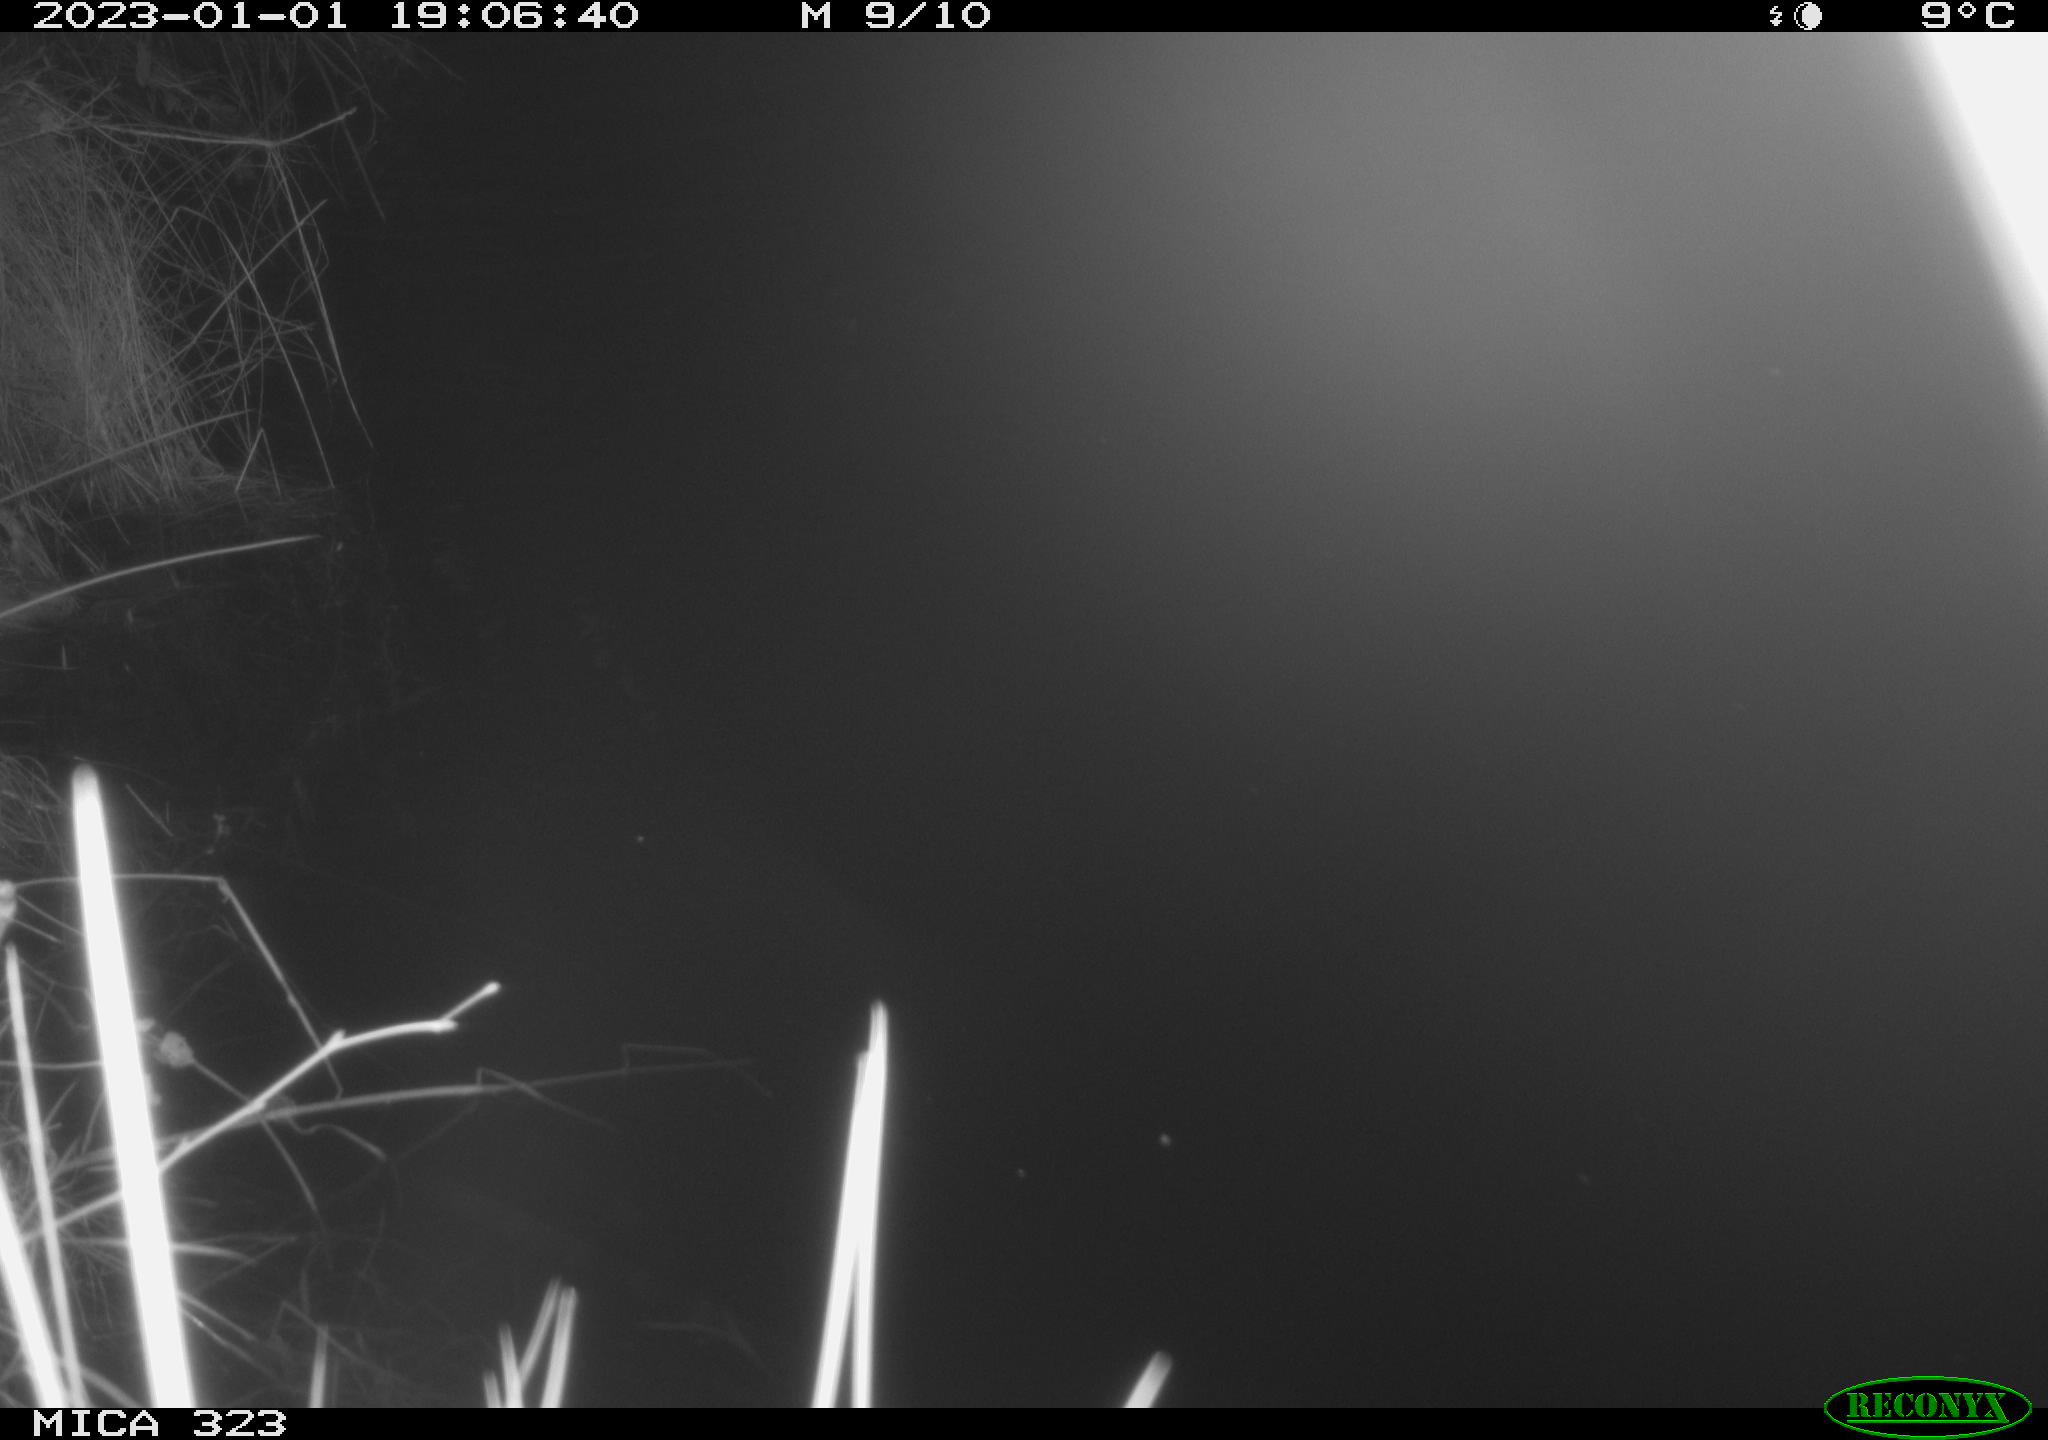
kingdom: Animalia
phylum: Chordata
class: Mammalia
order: Rodentia
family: Cricetidae
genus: Ondatra
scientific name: Ondatra zibethicus
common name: Muskrat
